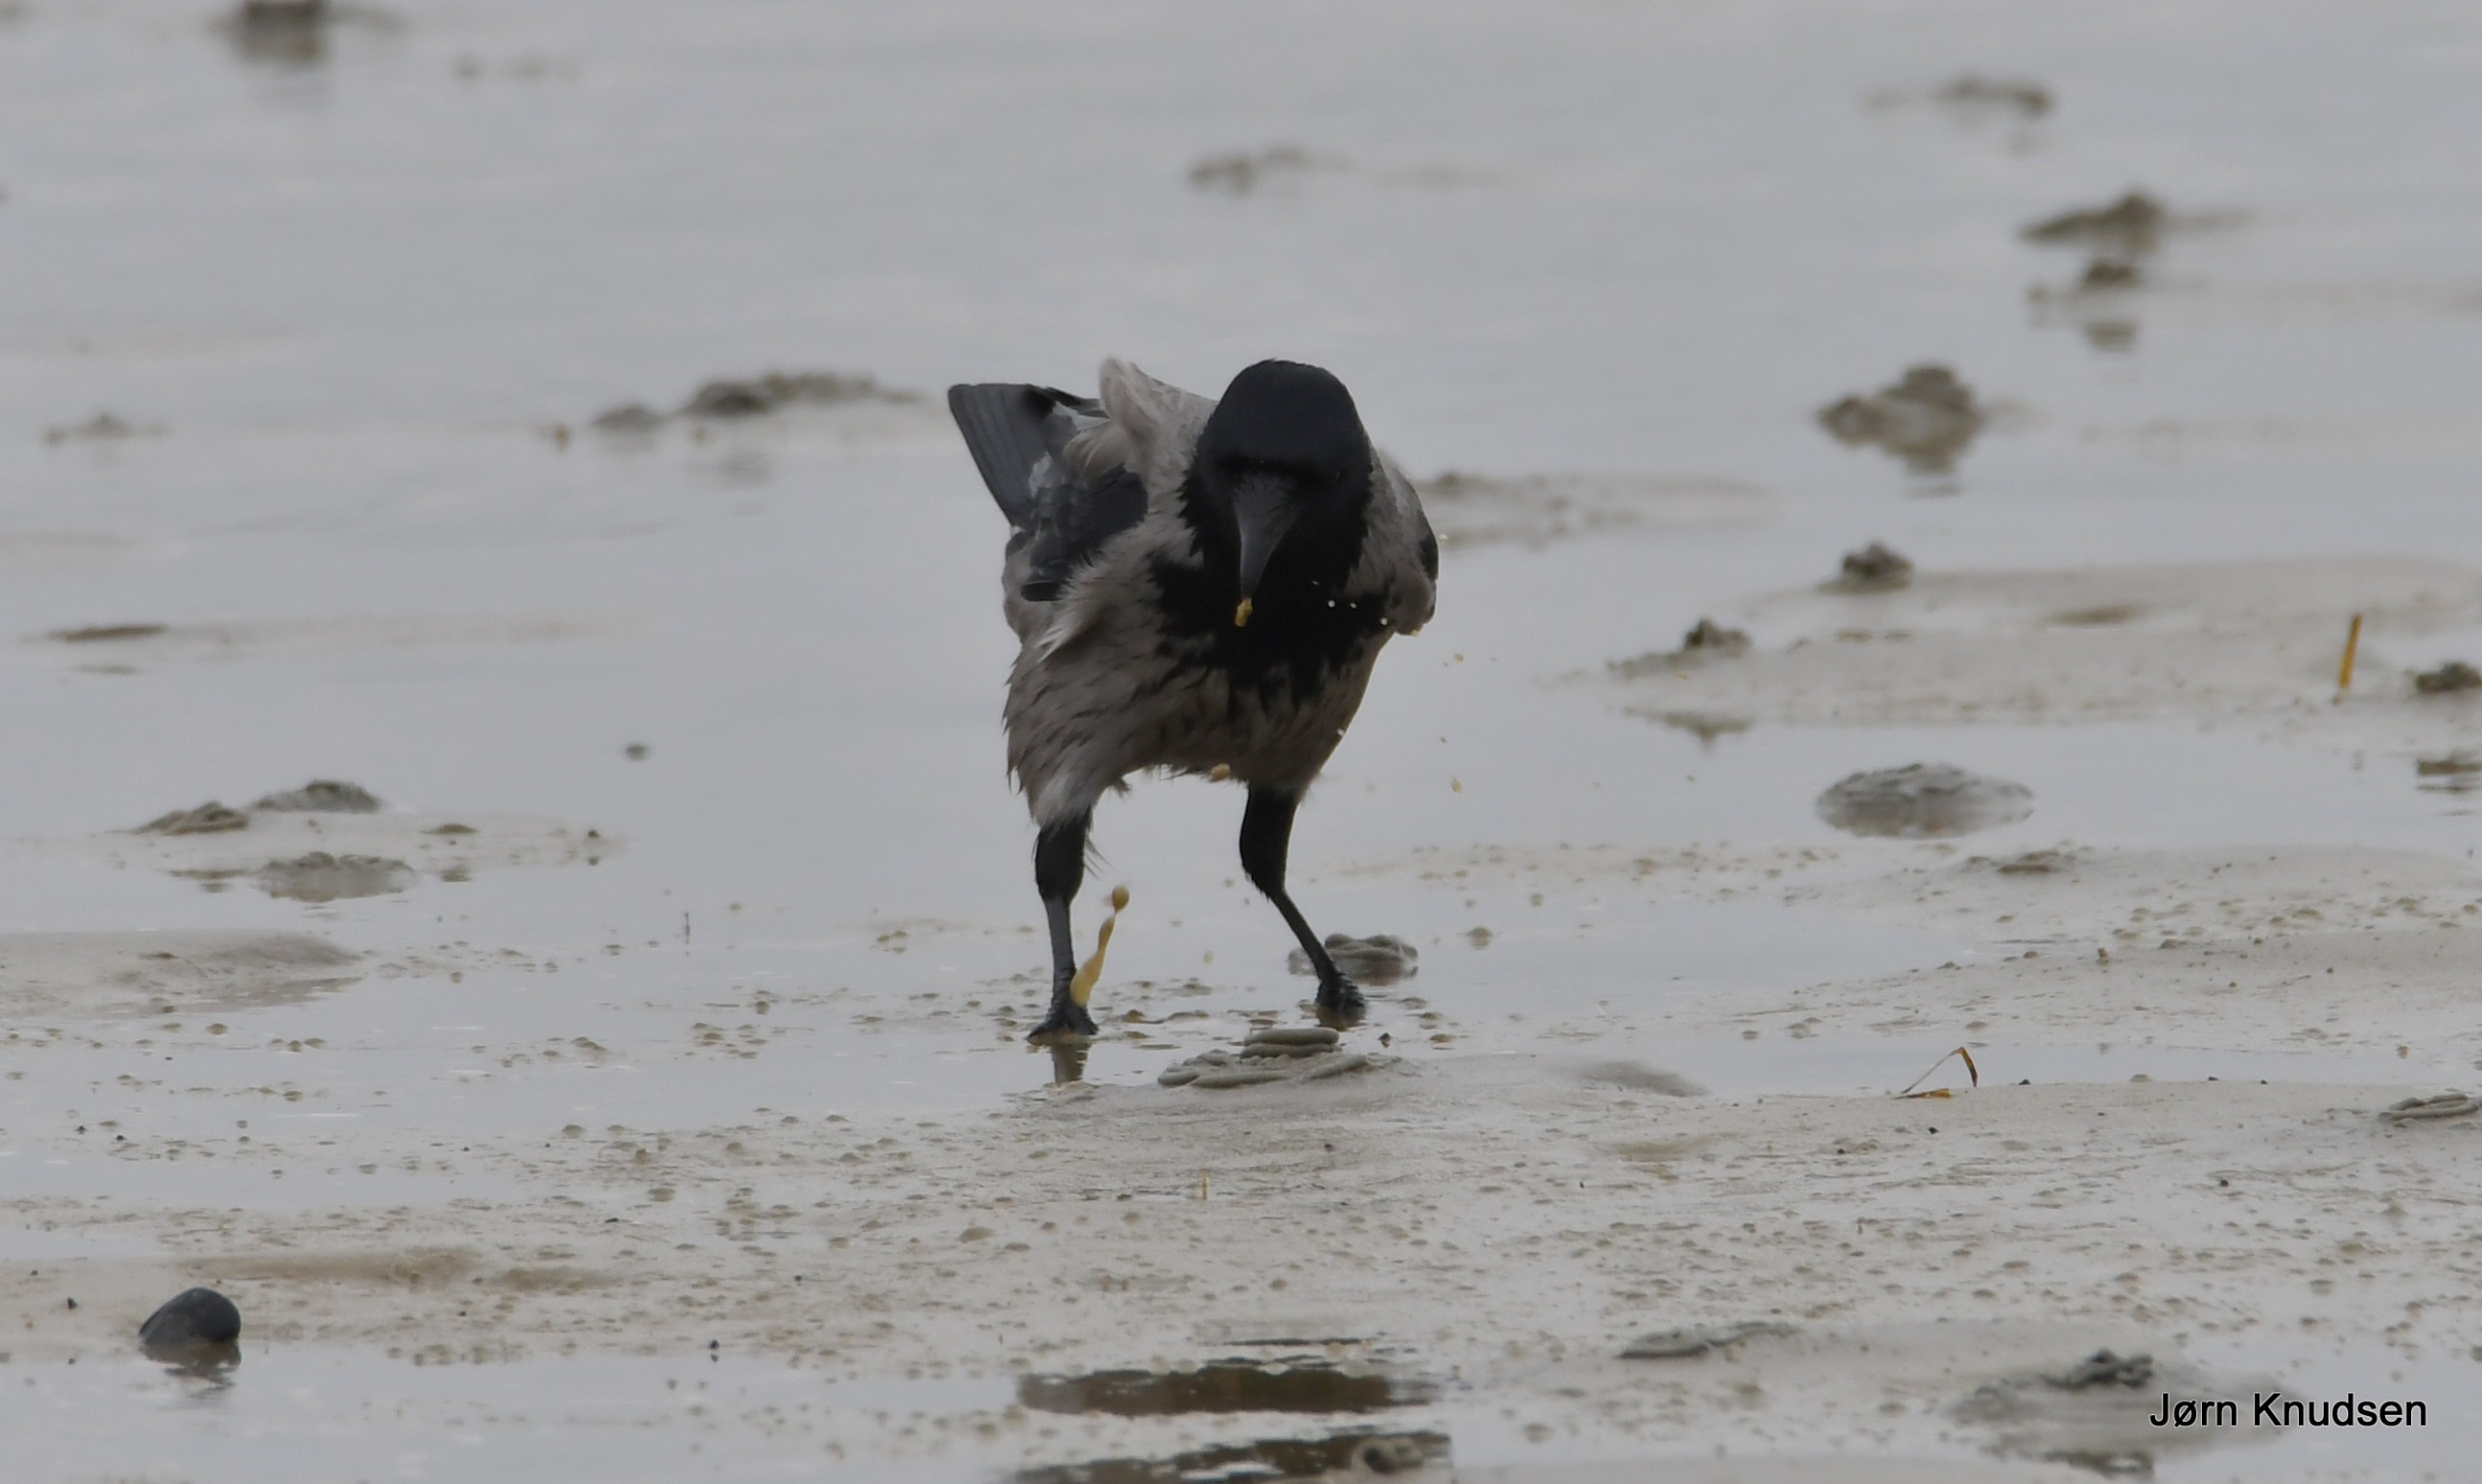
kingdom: Animalia
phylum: Chordata
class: Aves
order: Passeriformes
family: Corvidae
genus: Corvus
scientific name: Corvus cornix
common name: Gråkrage
